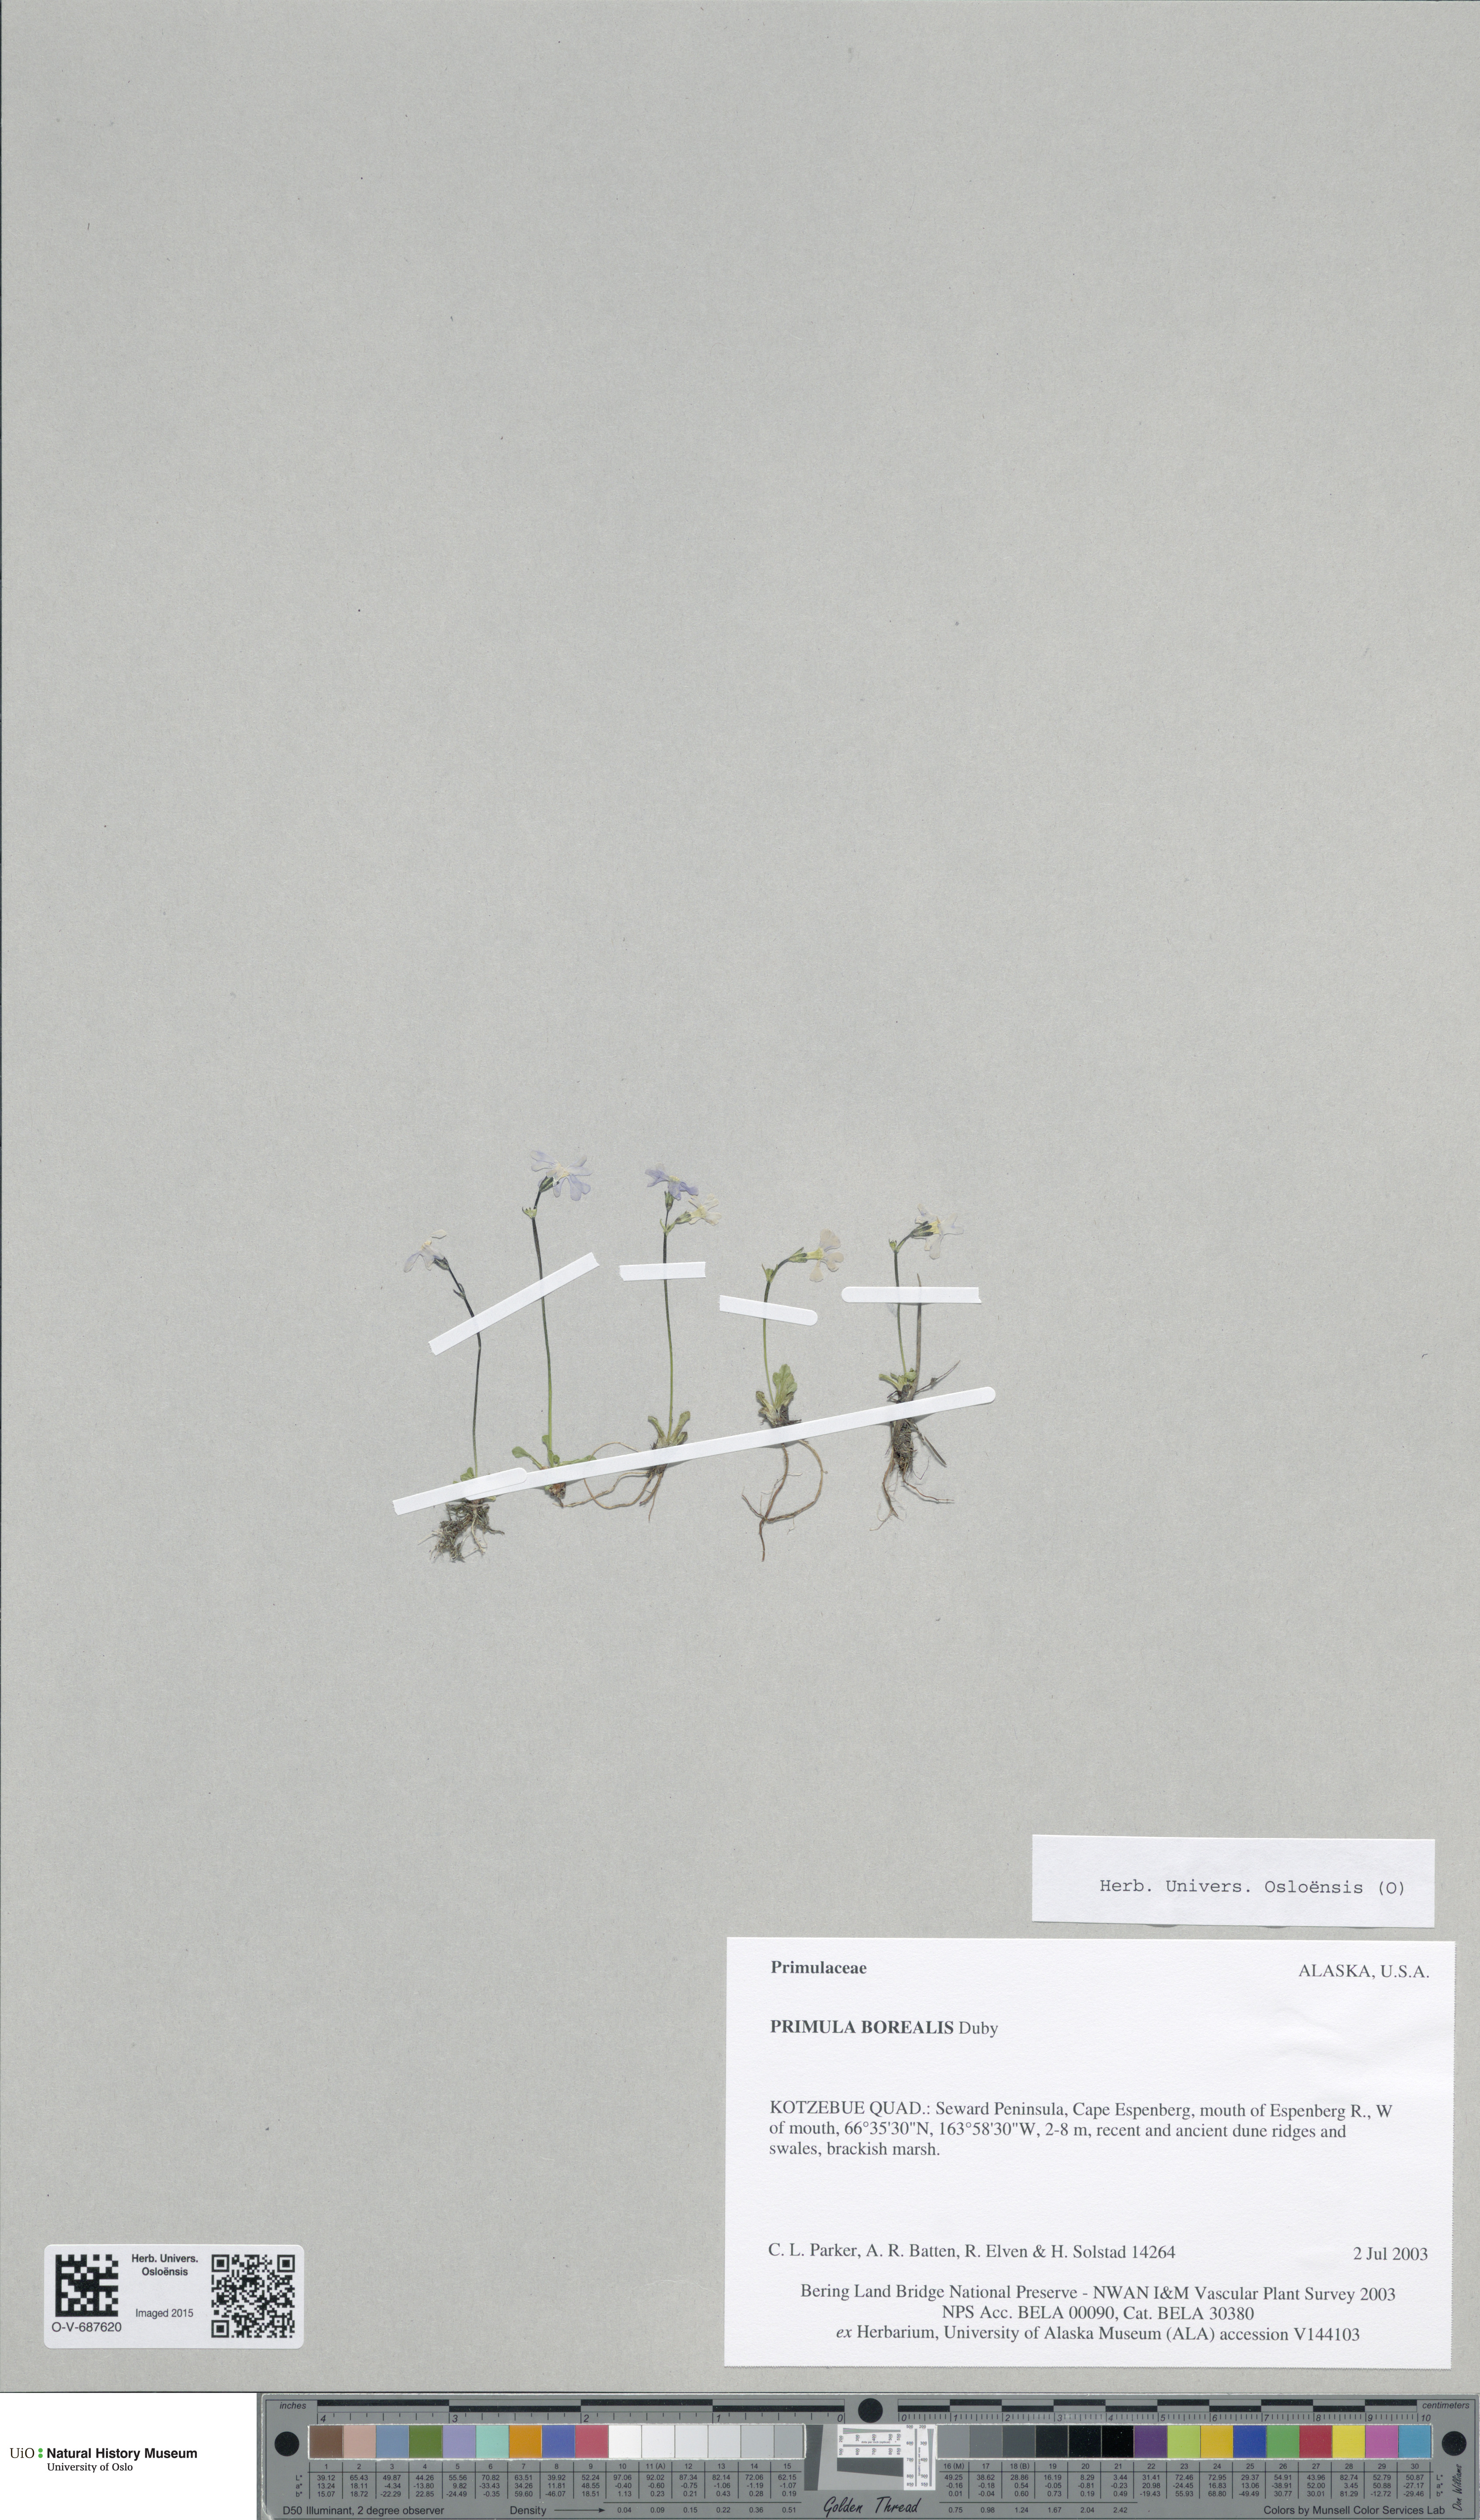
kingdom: Plantae
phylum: Tracheophyta
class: Magnoliopsida
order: Ericales
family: Primulaceae
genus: Primula
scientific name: Primula borealis
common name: Northern primrose
